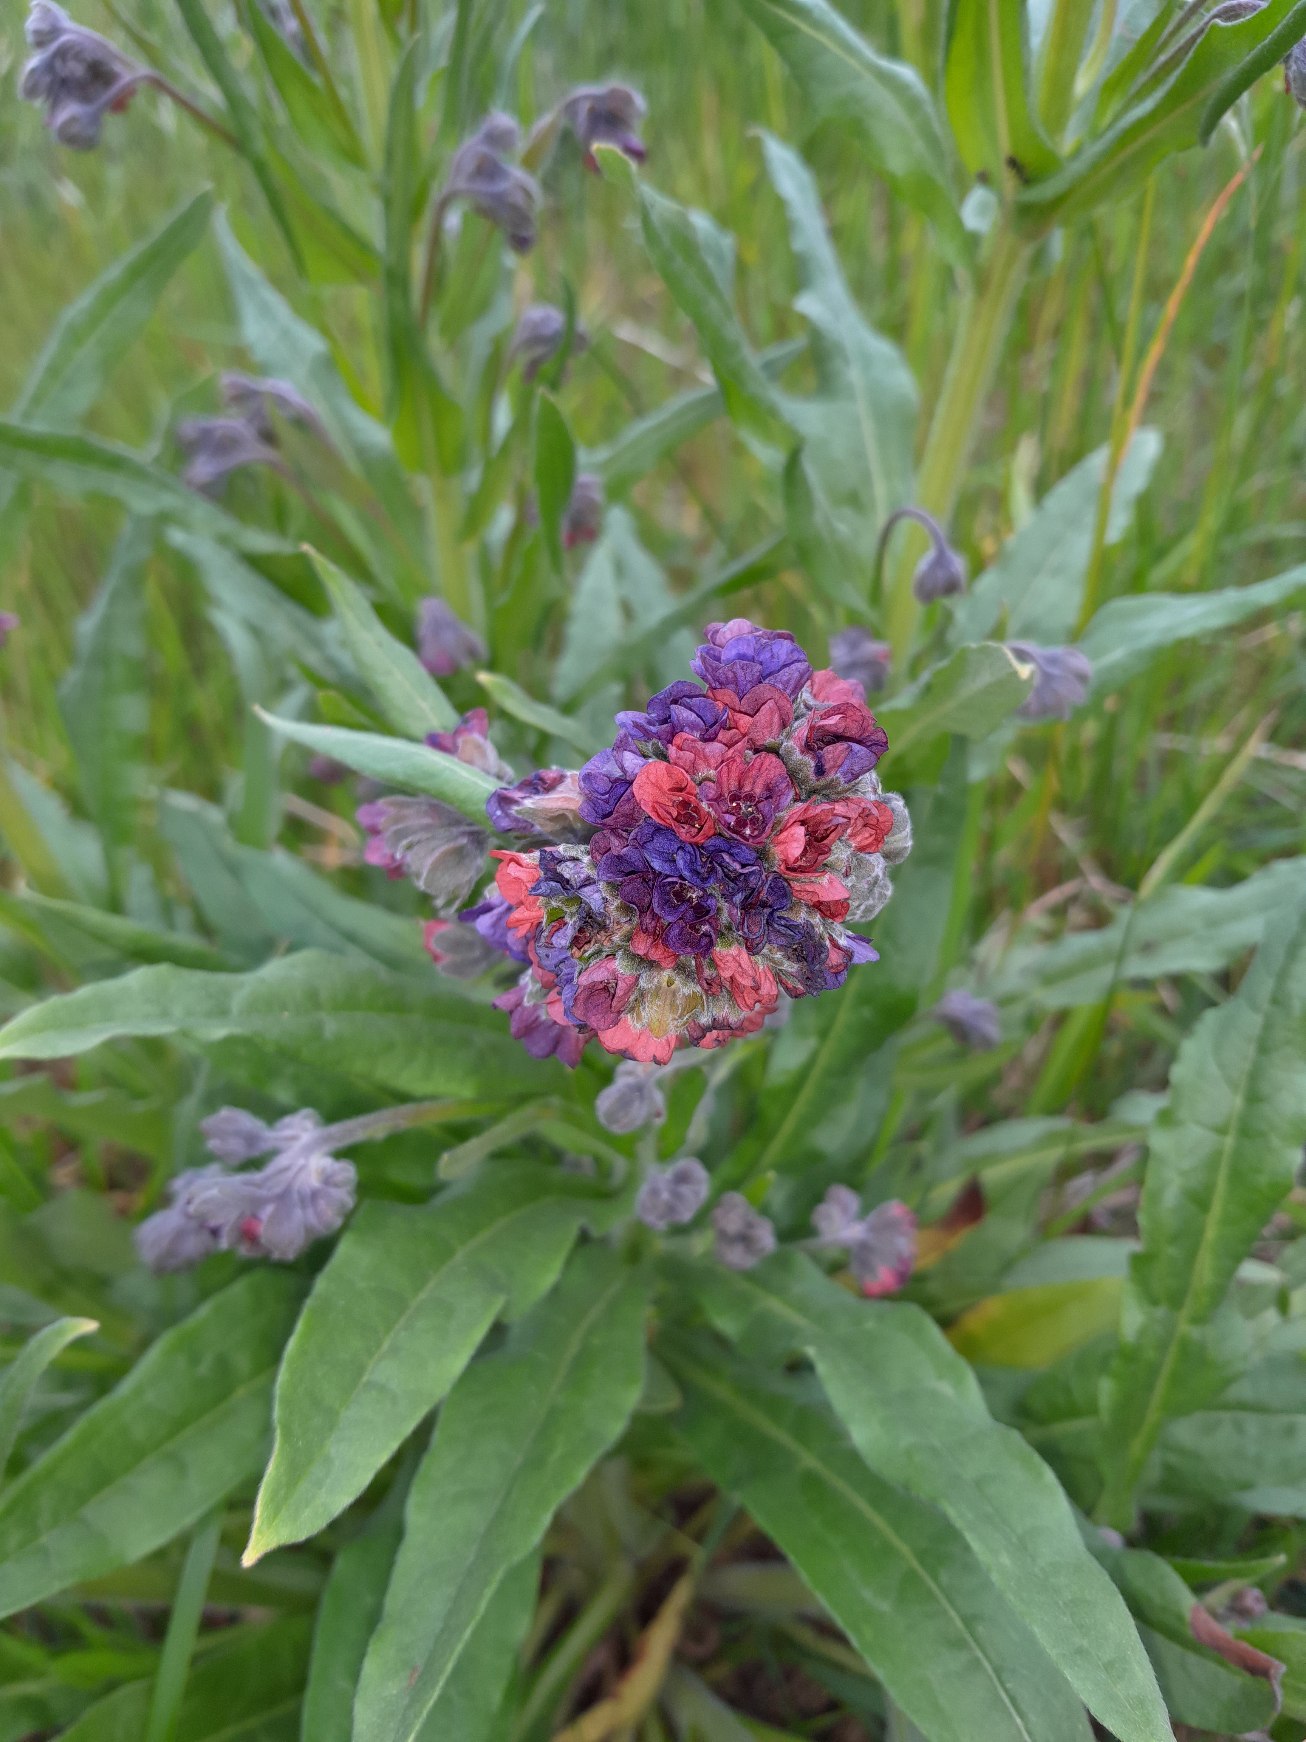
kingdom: Plantae
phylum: Tracheophyta
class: Magnoliopsida
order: Boraginales
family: Boraginaceae
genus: Cynoglossum
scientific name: Cynoglossum officinale
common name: Hundetunge
